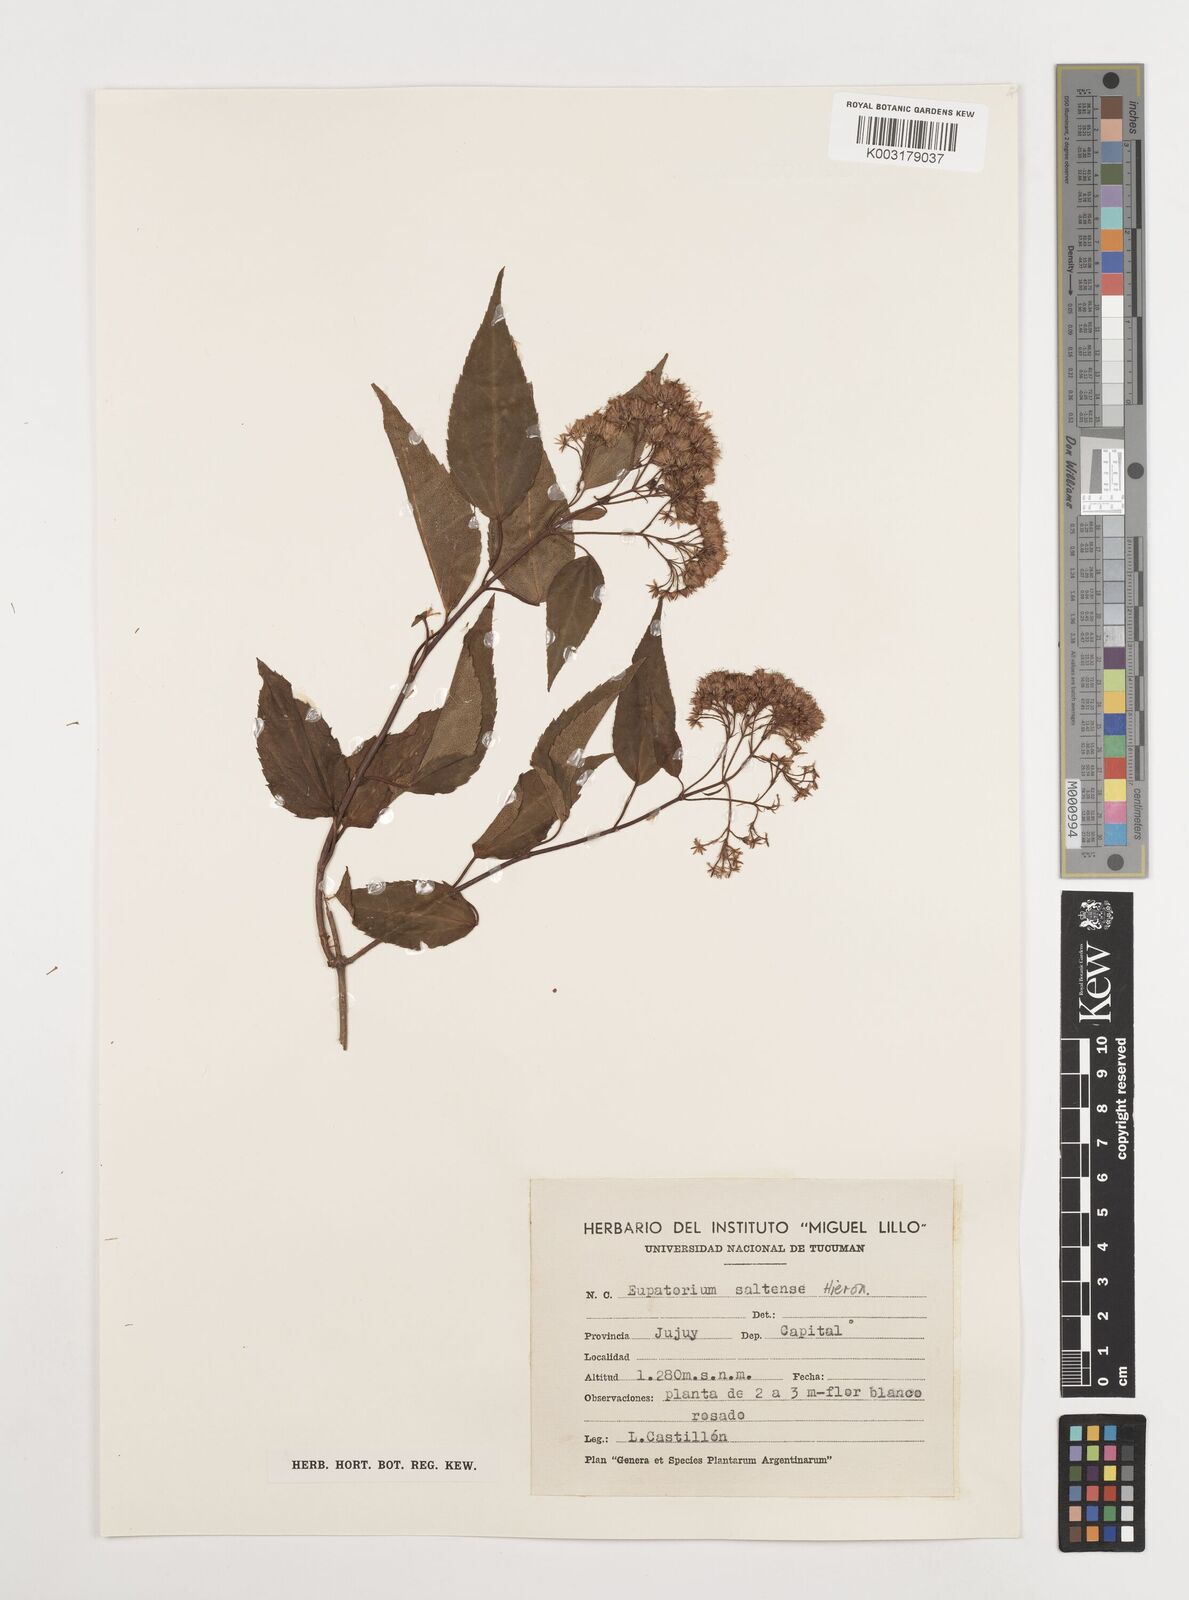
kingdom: Plantae
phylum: Tracheophyta
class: Magnoliopsida
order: Asterales
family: Asteraceae
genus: Kaunia
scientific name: Kaunia saltensis
